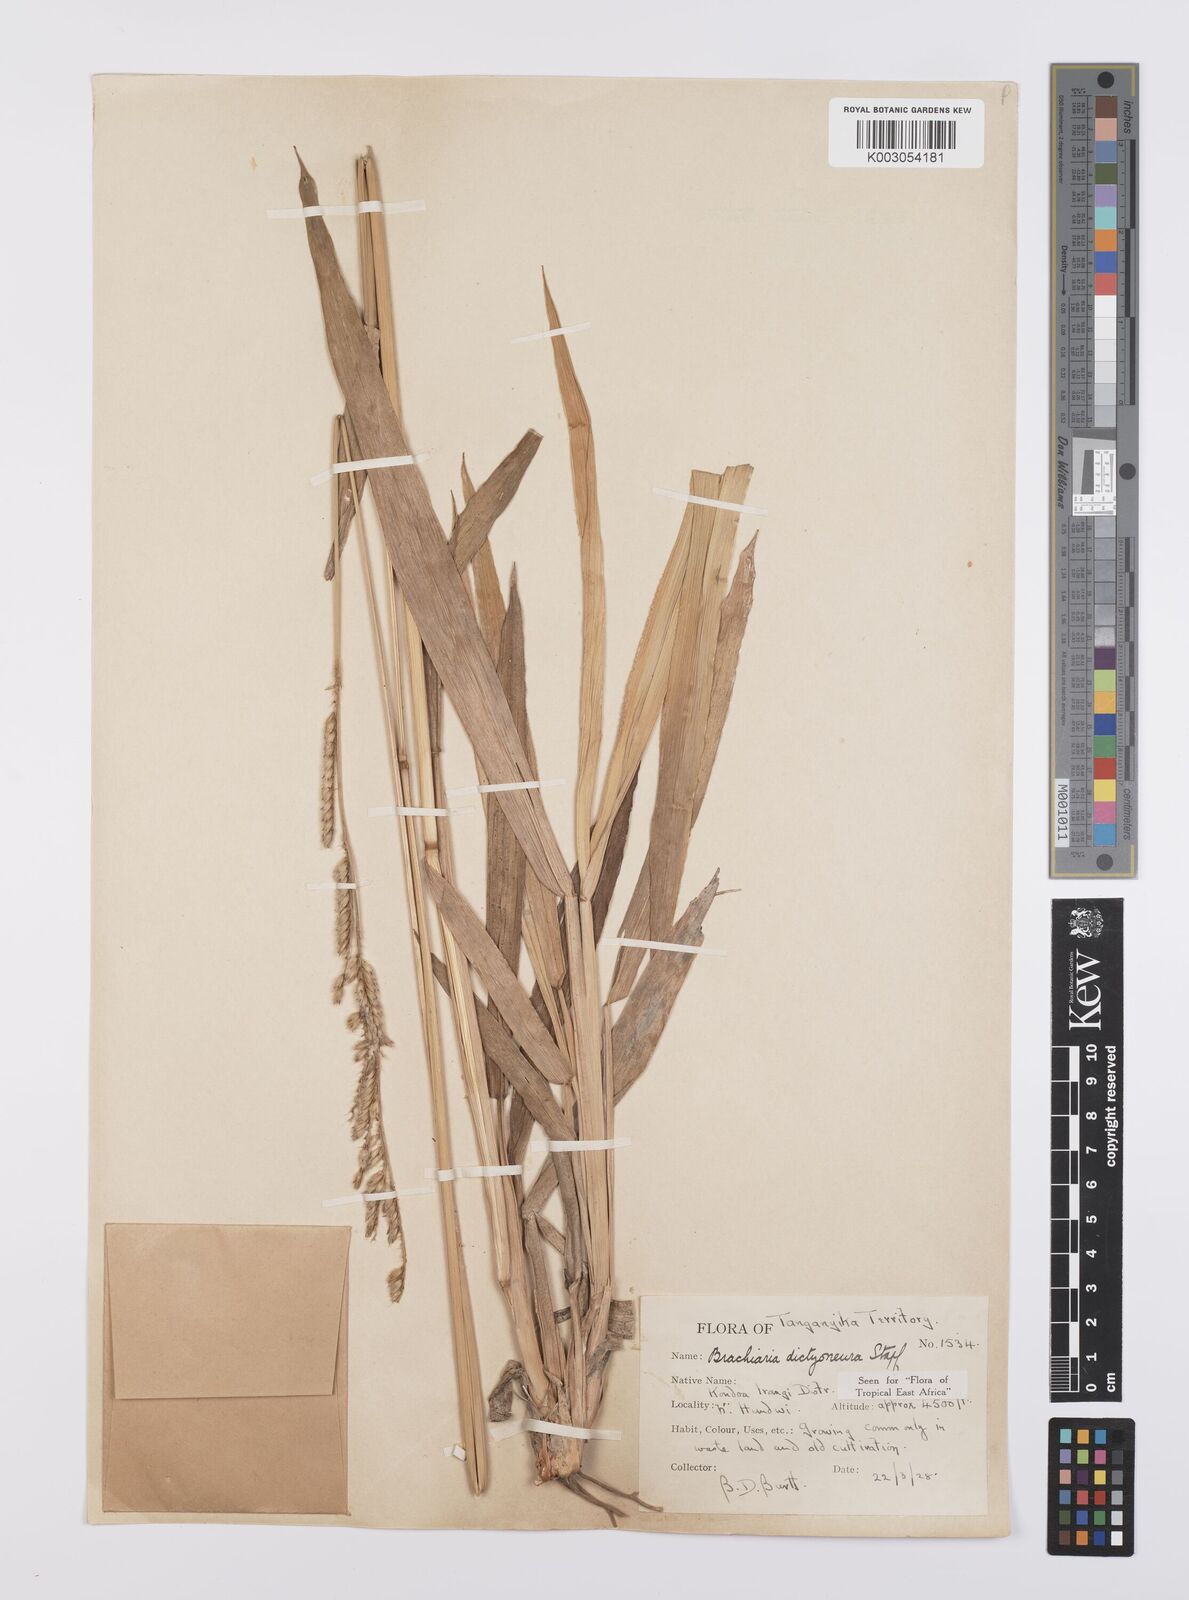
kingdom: Plantae
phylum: Tracheophyta
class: Liliopsida
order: Poales
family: Poaceae
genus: Urochloa
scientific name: Urochloa dictyoneura
